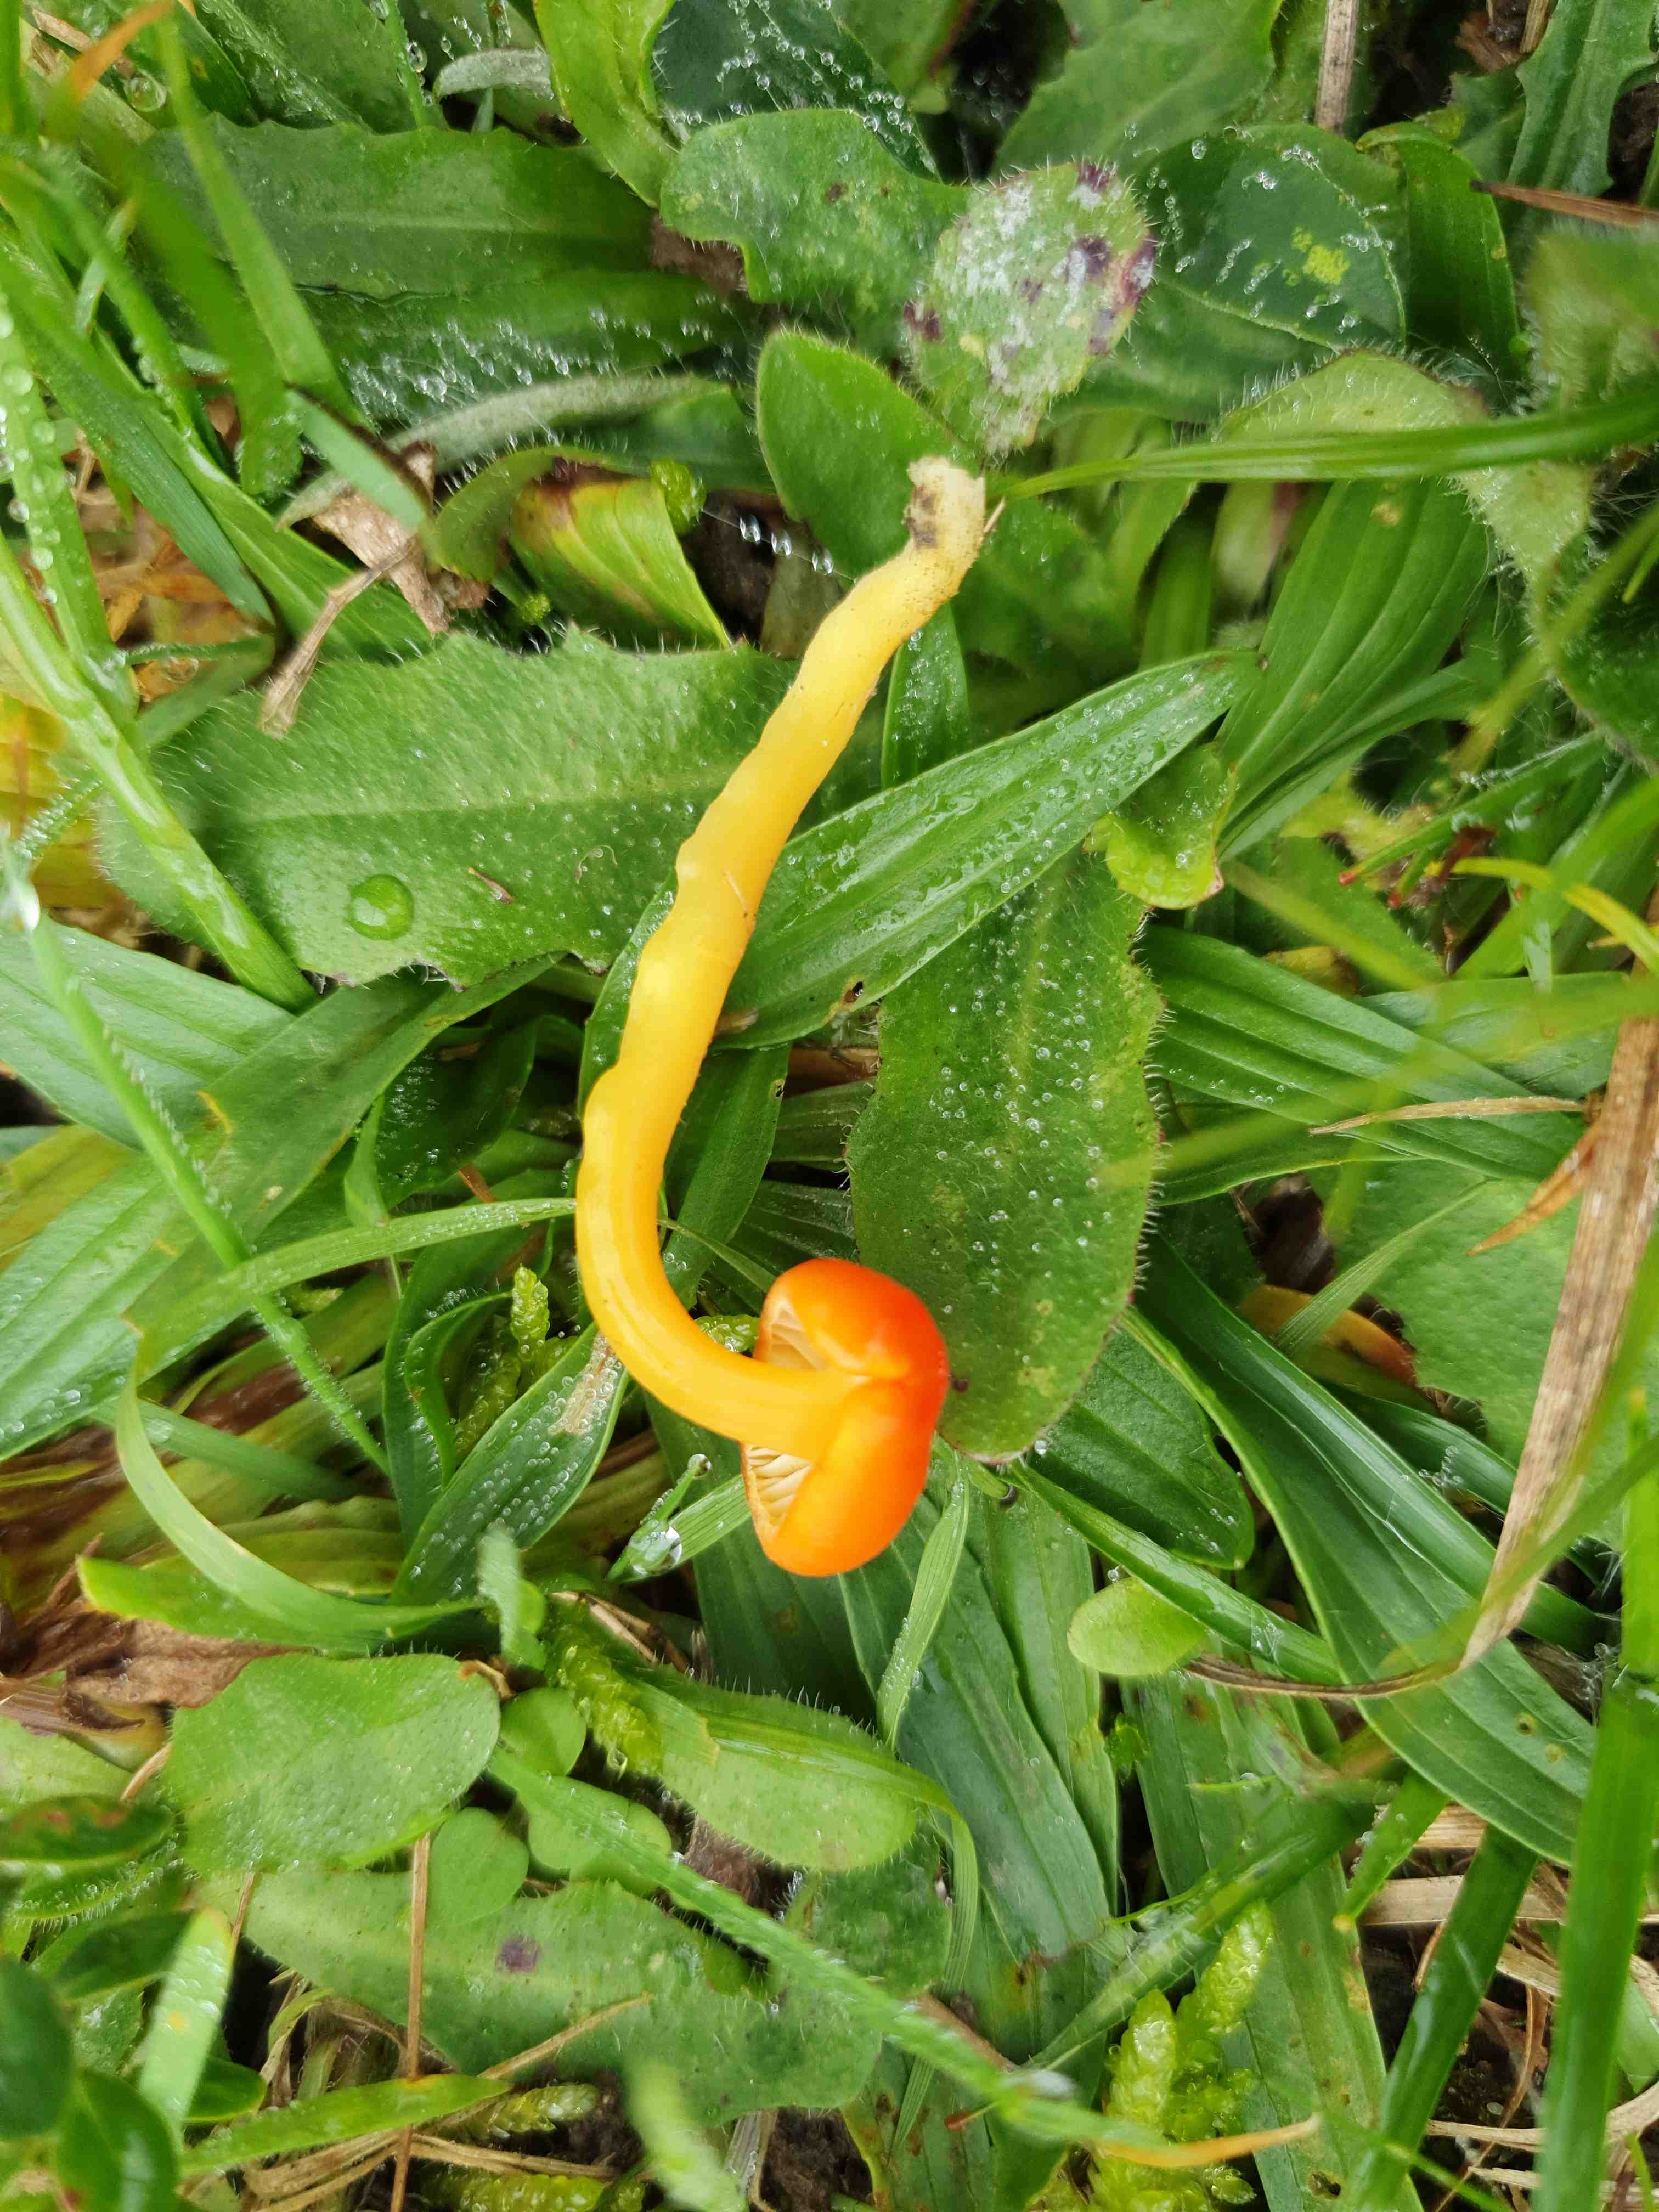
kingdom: Fungi
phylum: Basidiomycota
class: Agaricomycetes
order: Agaricales
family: Hygrophoraceae
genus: Hygrocybe
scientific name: Hygrocybe reidii
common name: honning-vokshat
